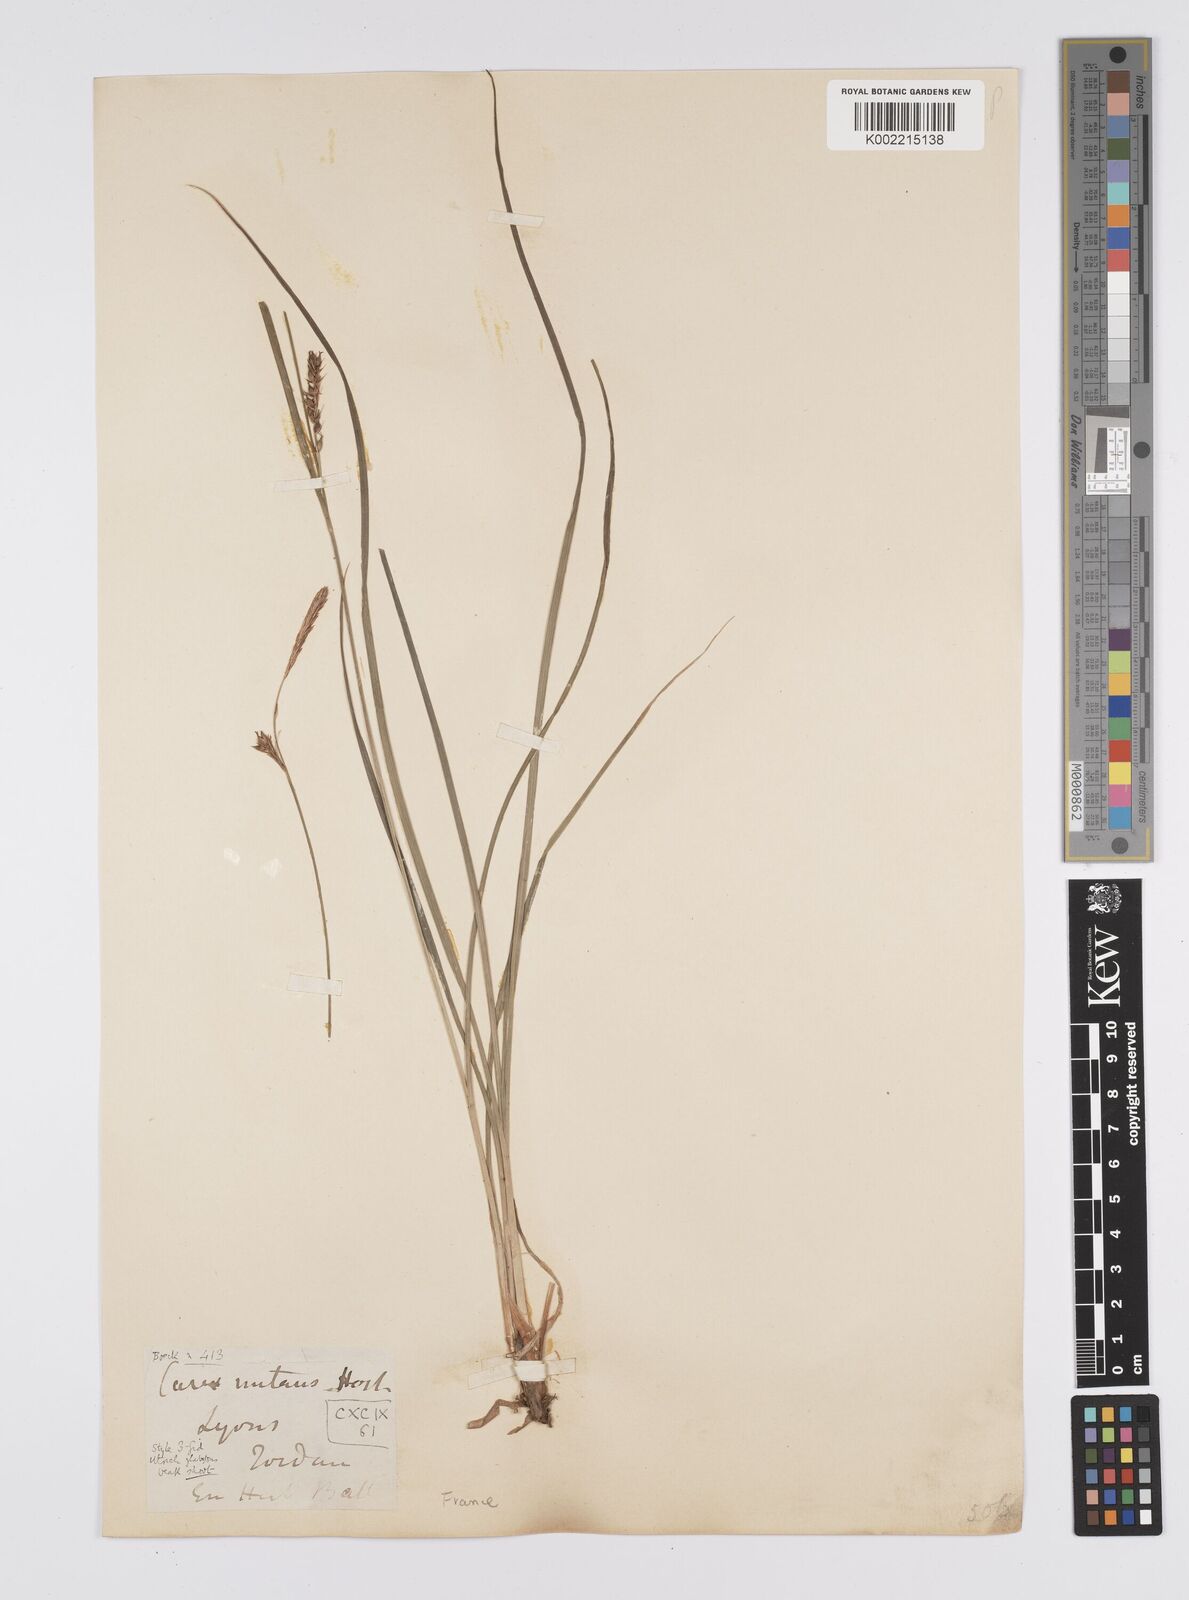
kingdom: Plantae
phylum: Tracheophyta
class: Liliopsida
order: Poales
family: Cyperaceae
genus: Carex
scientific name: Carex melanostachya
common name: Black-spiked sedge
